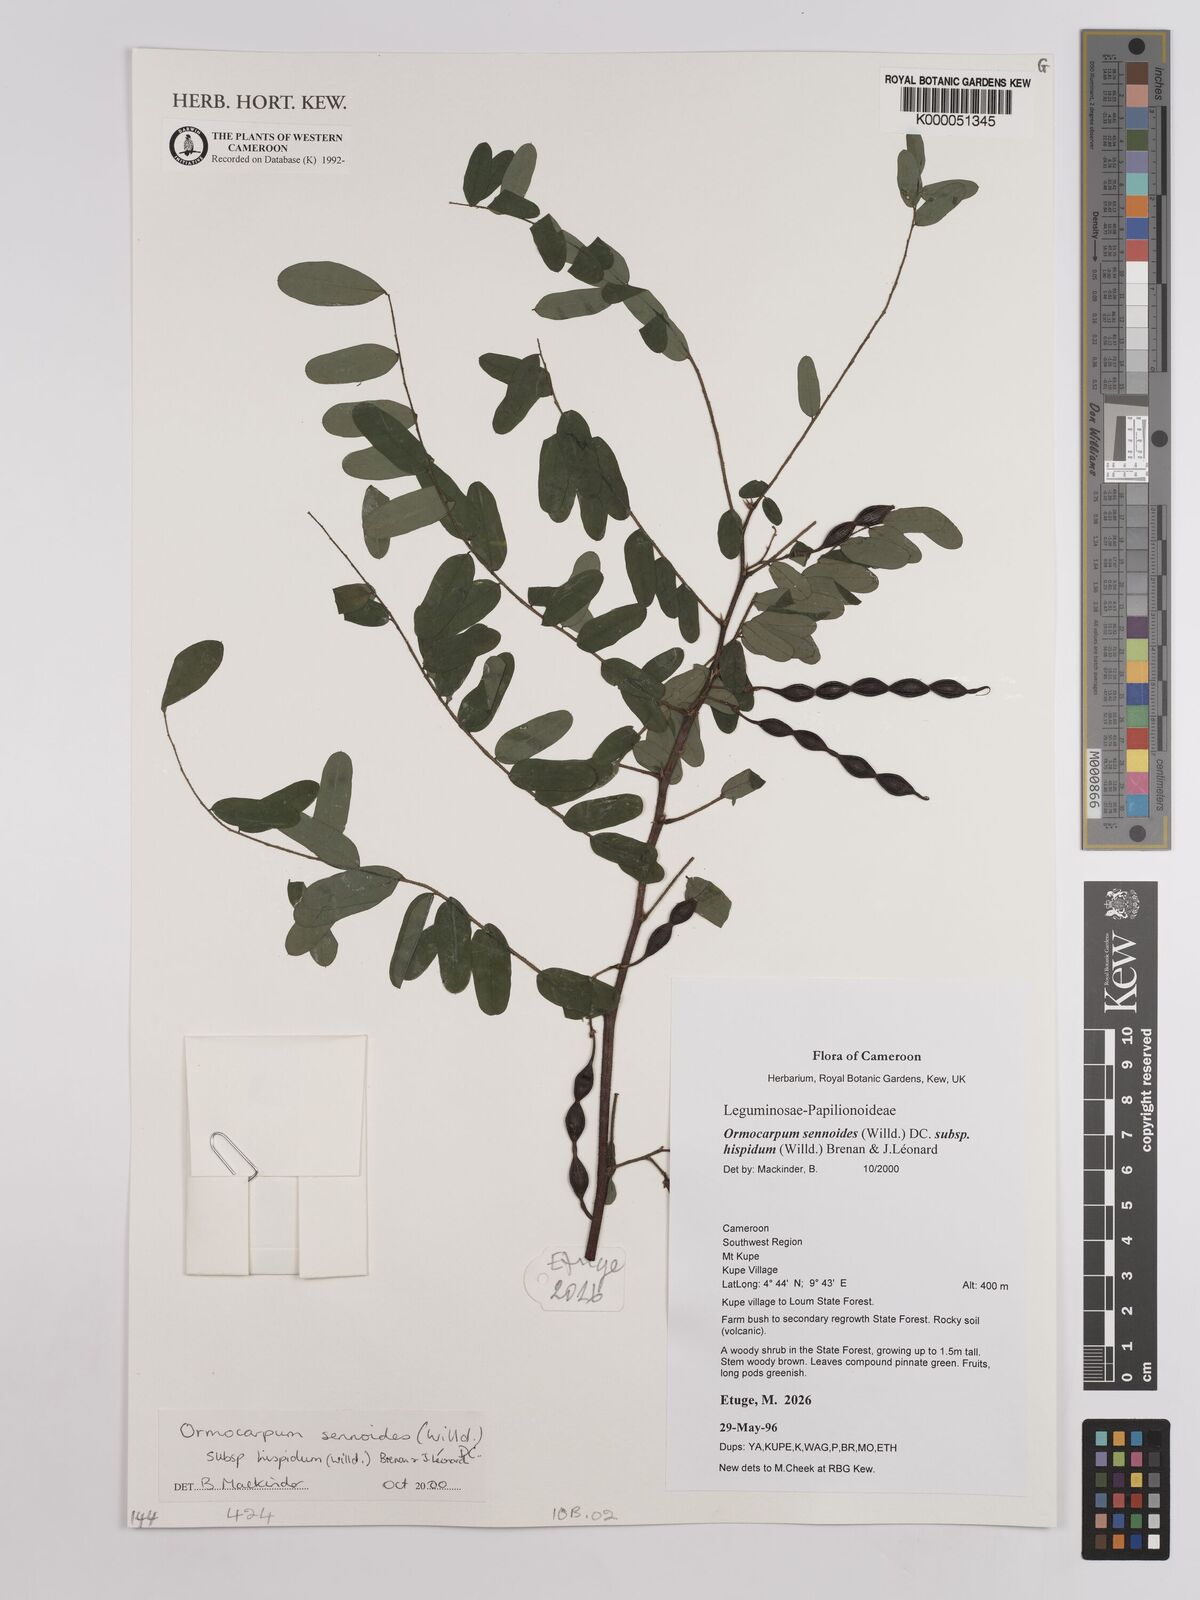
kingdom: Plantae
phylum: Tracheophyta
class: Magnoliopsida
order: Fabales
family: Fabaceae
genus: Ormocarpum
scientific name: Ormocarpum sennoides
